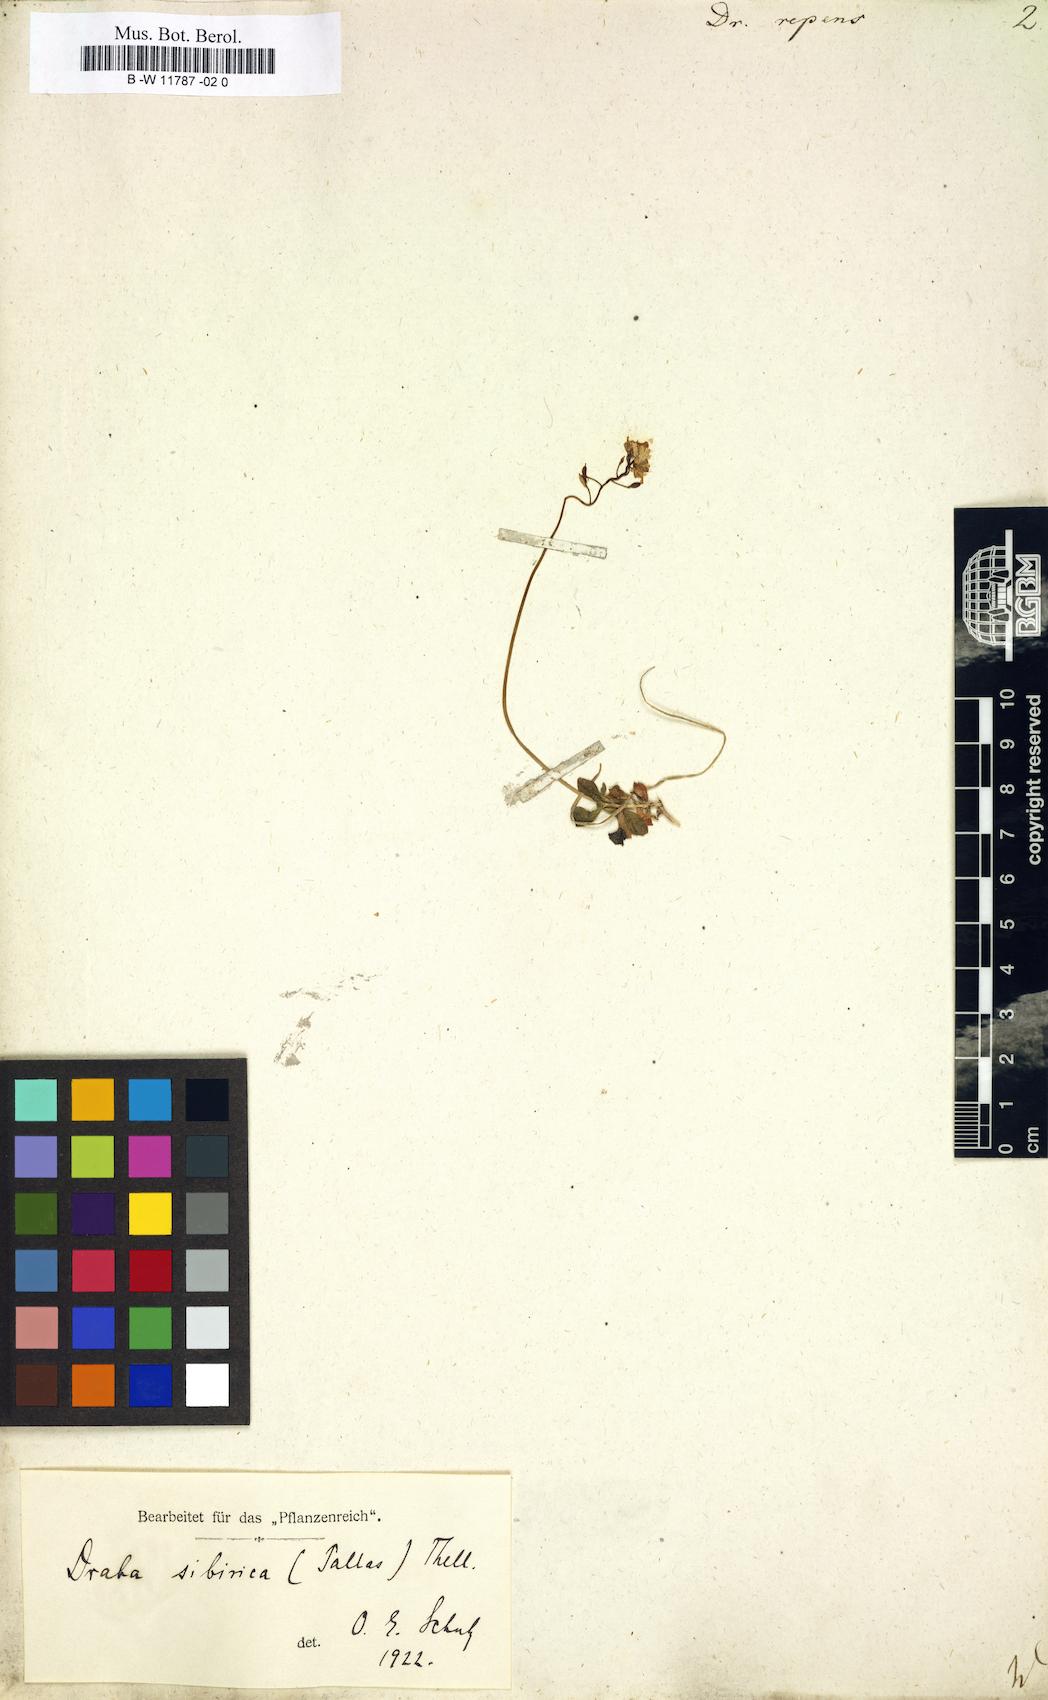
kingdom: Plantae
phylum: Tracheophyta
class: Magnoliopsida
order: Brassicales
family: Brassicaceae
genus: Draba
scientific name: Draba sibirica
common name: Siberian draba
